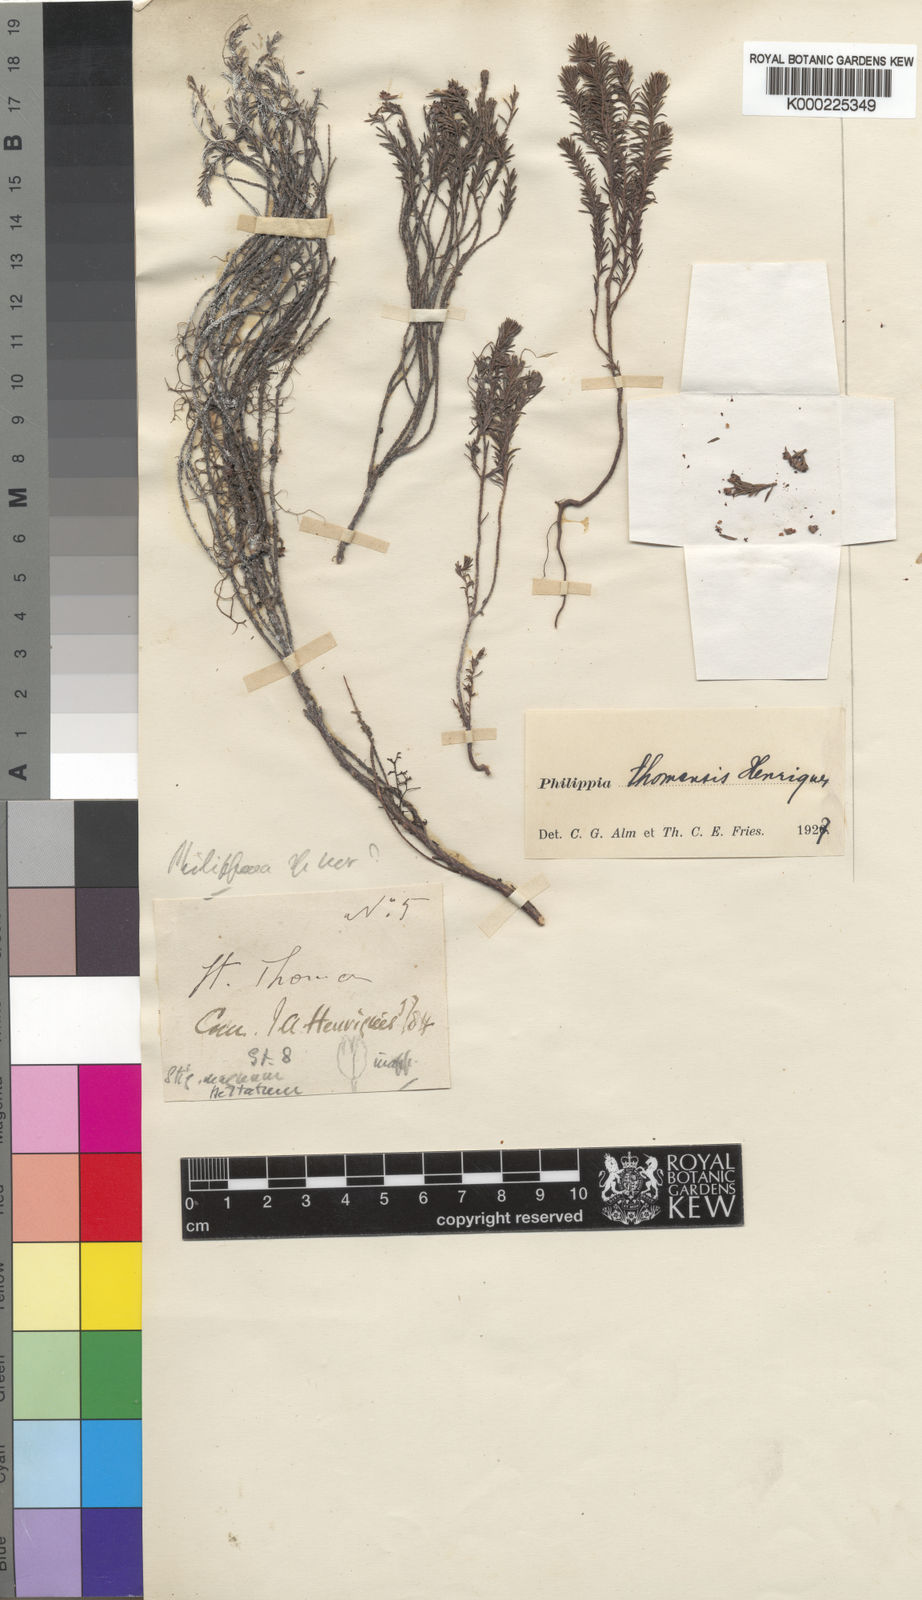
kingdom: Plantae
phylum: Tracheophyta
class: Magnoliopsida
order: Ericales
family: Ericaceae
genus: Erica
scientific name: Erica thomensis
